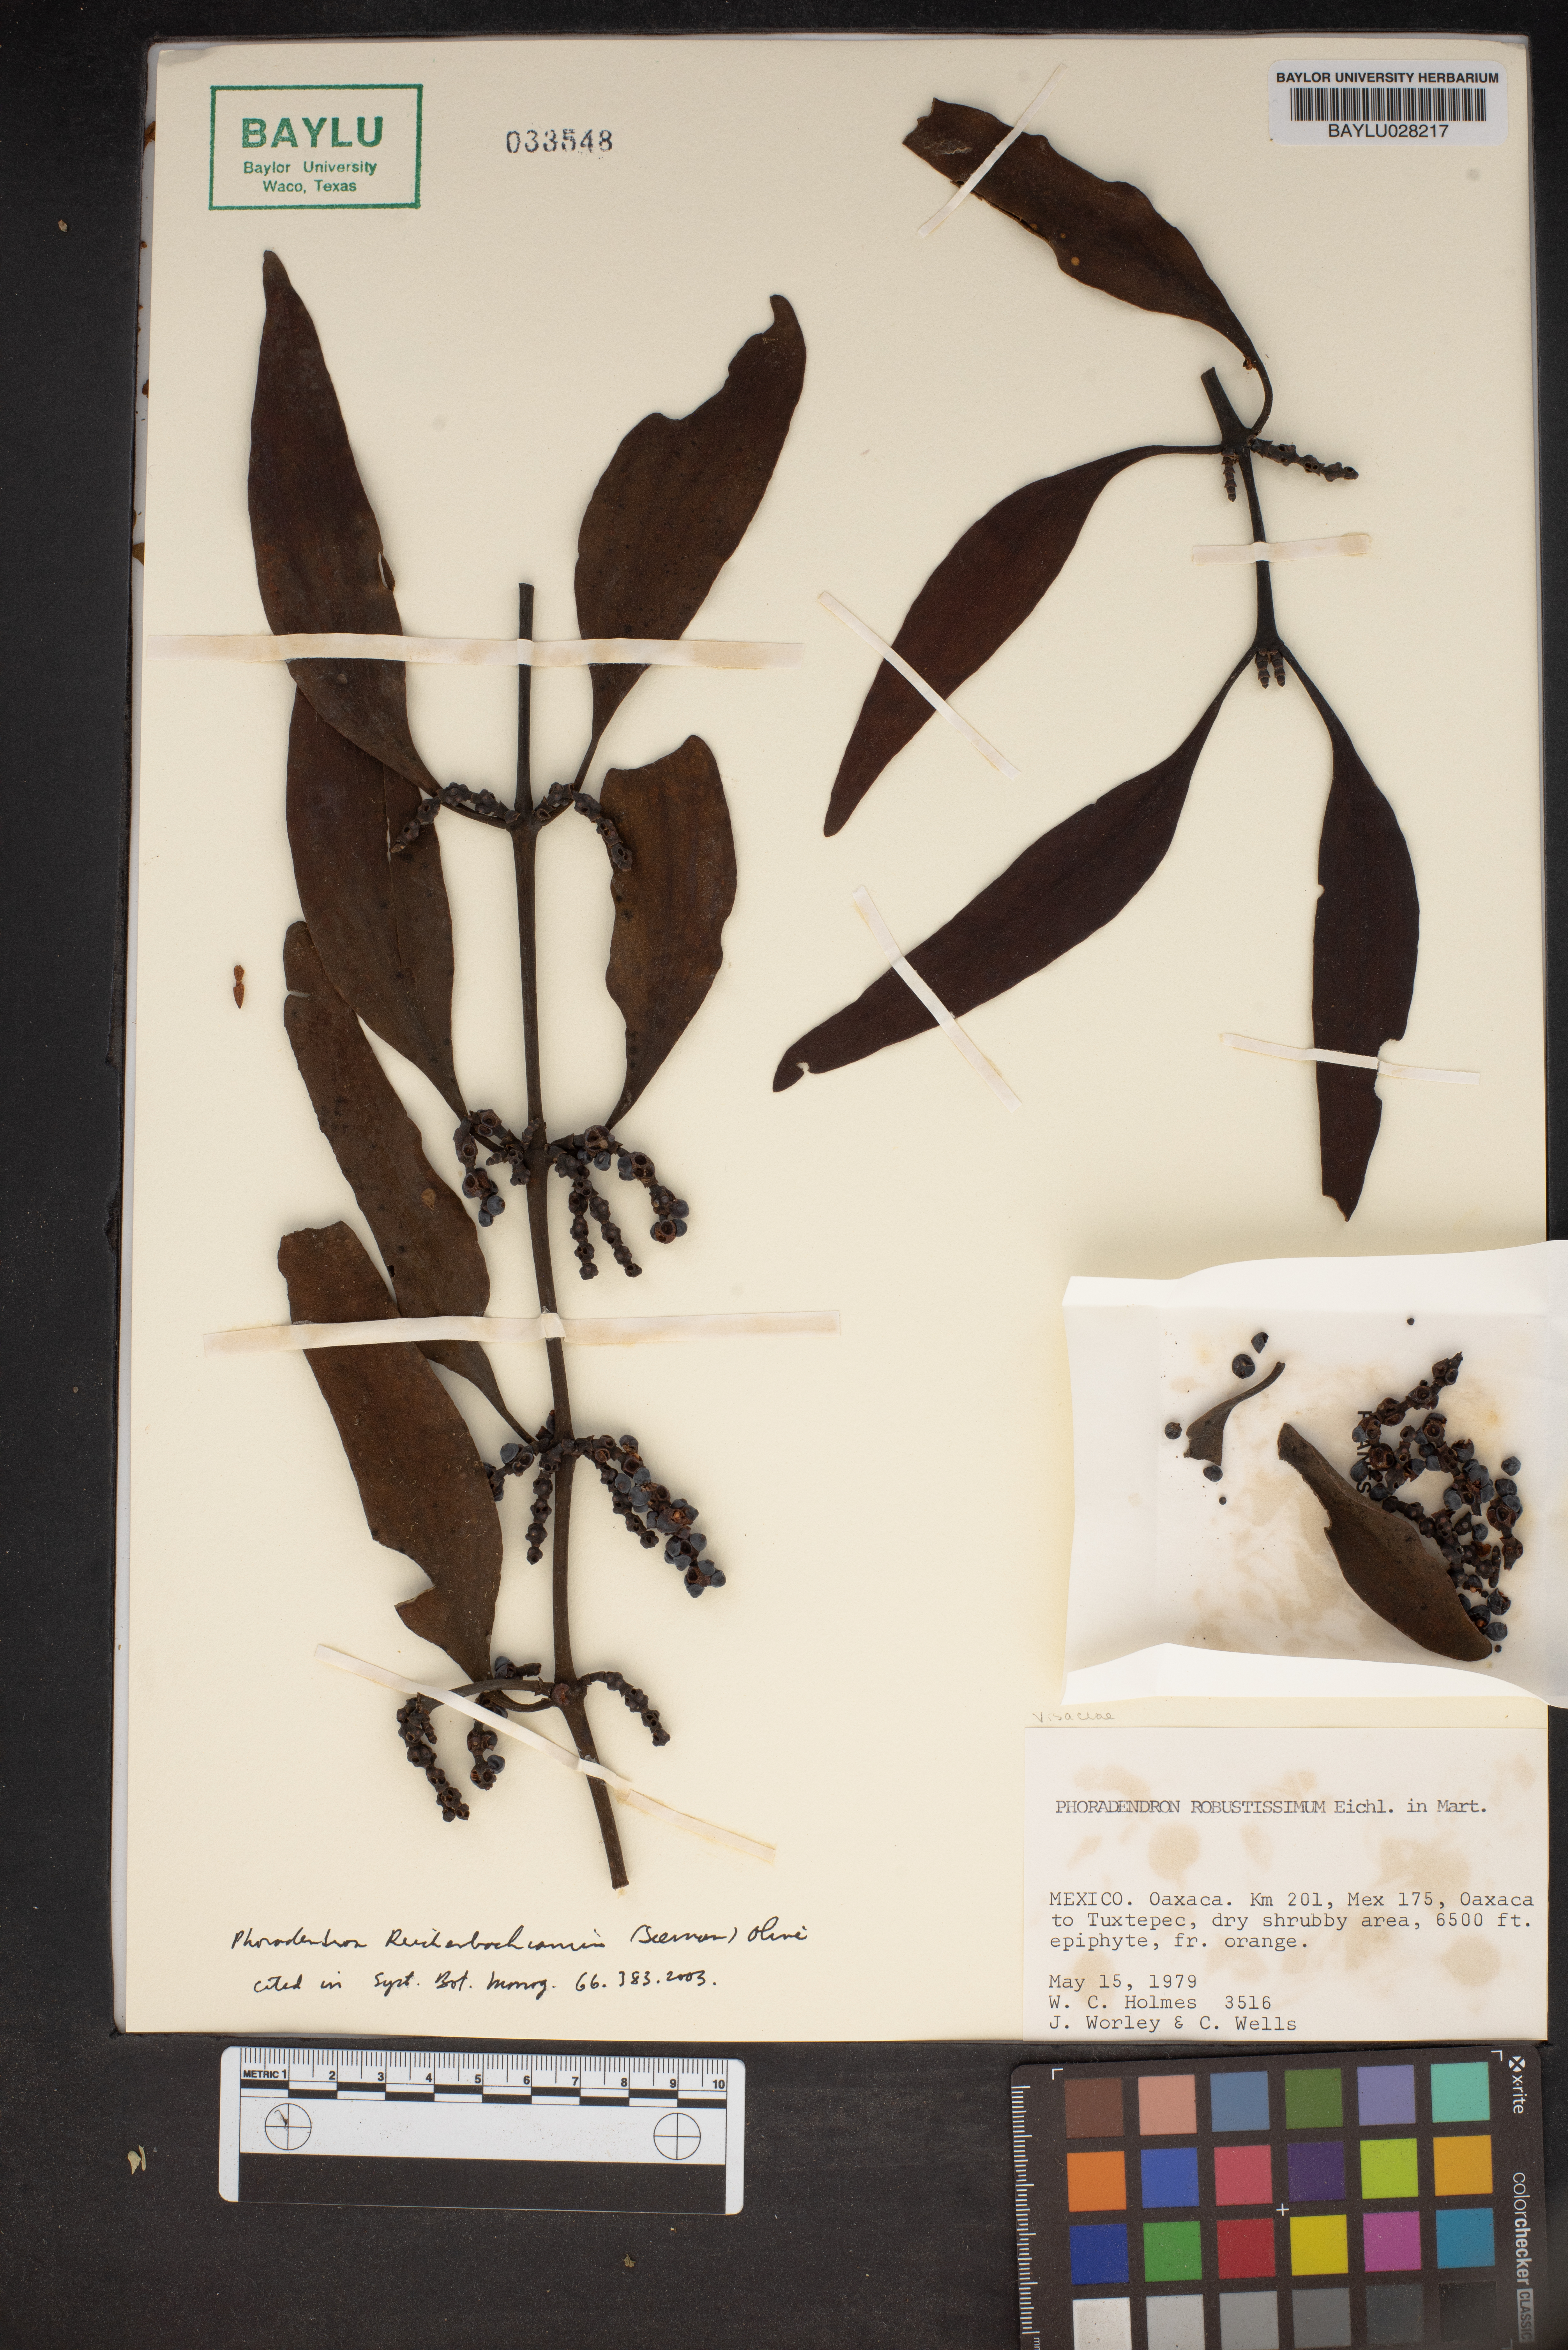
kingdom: Plantae
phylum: Tracheophyta
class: Magnoliopsida
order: Santalales
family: Viscaceae
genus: Phoradendron
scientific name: Phoradendron robustissimum
